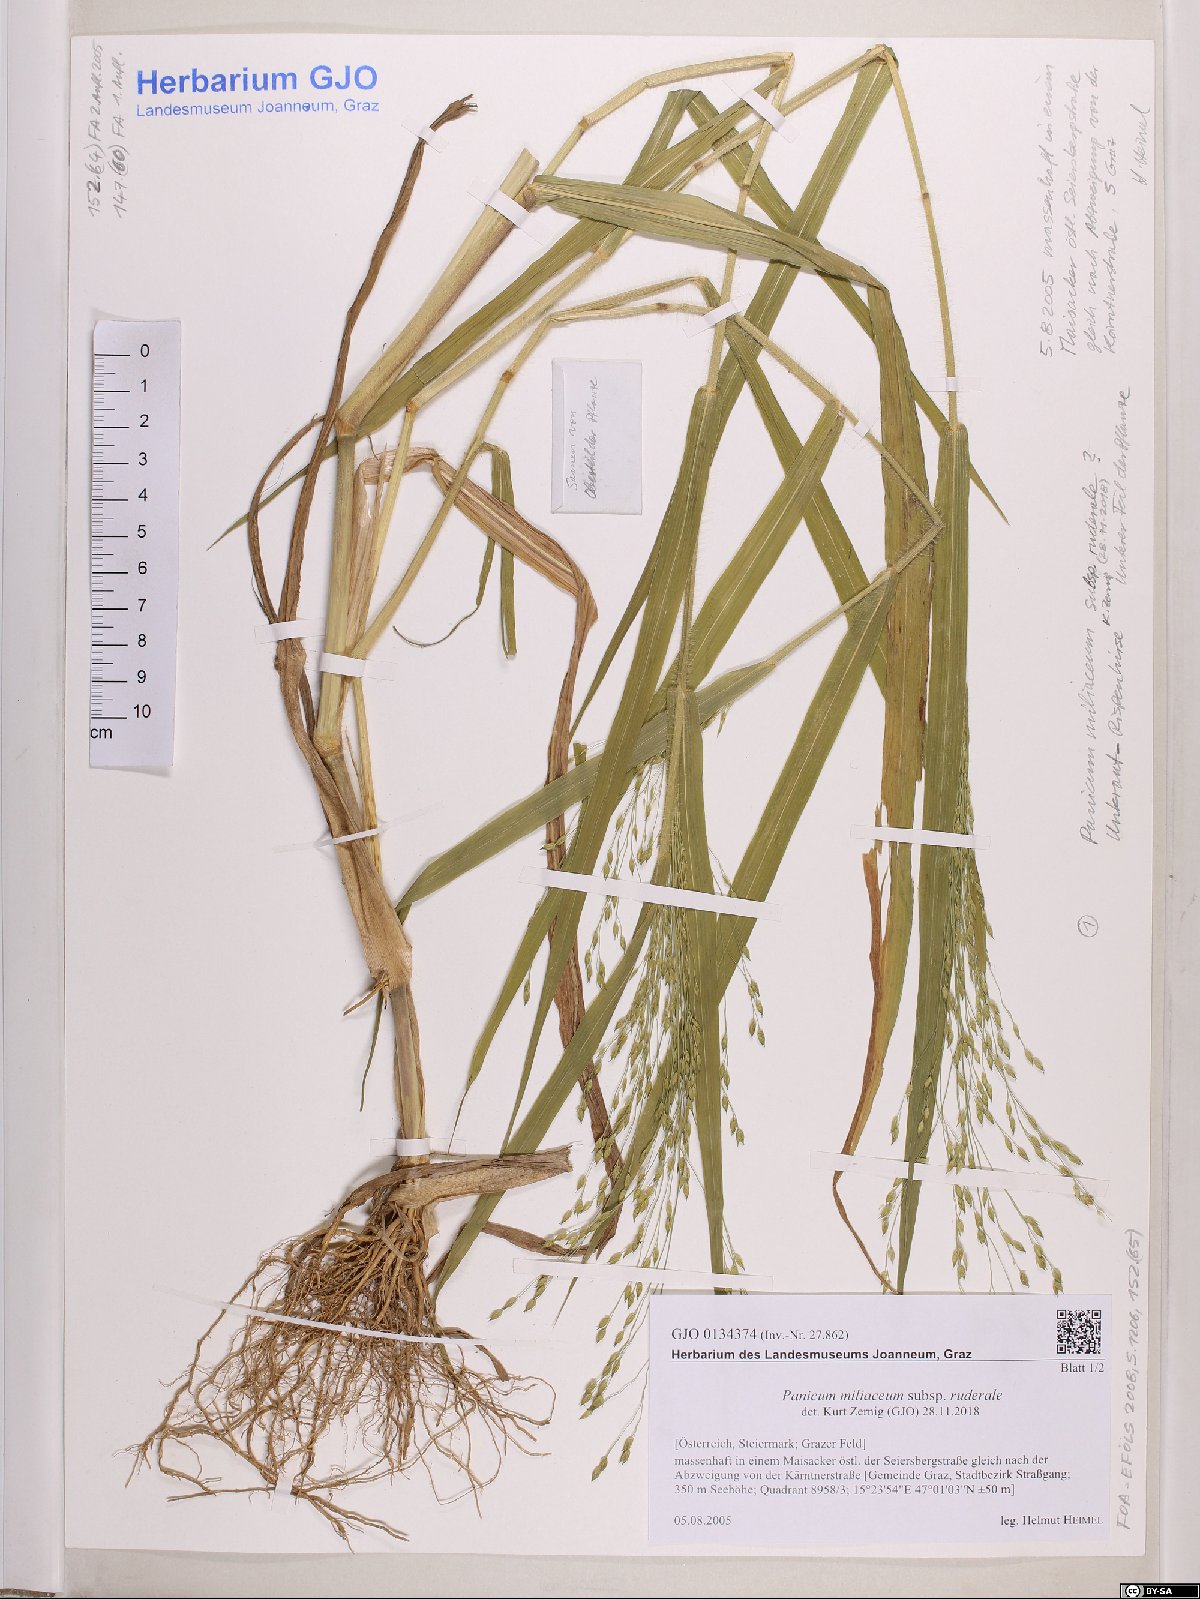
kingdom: Plantae
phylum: Tracheophyta
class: Liliopsida
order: Poales
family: Poaceae
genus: Panicum
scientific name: Panicum miliaceum
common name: Common millet
